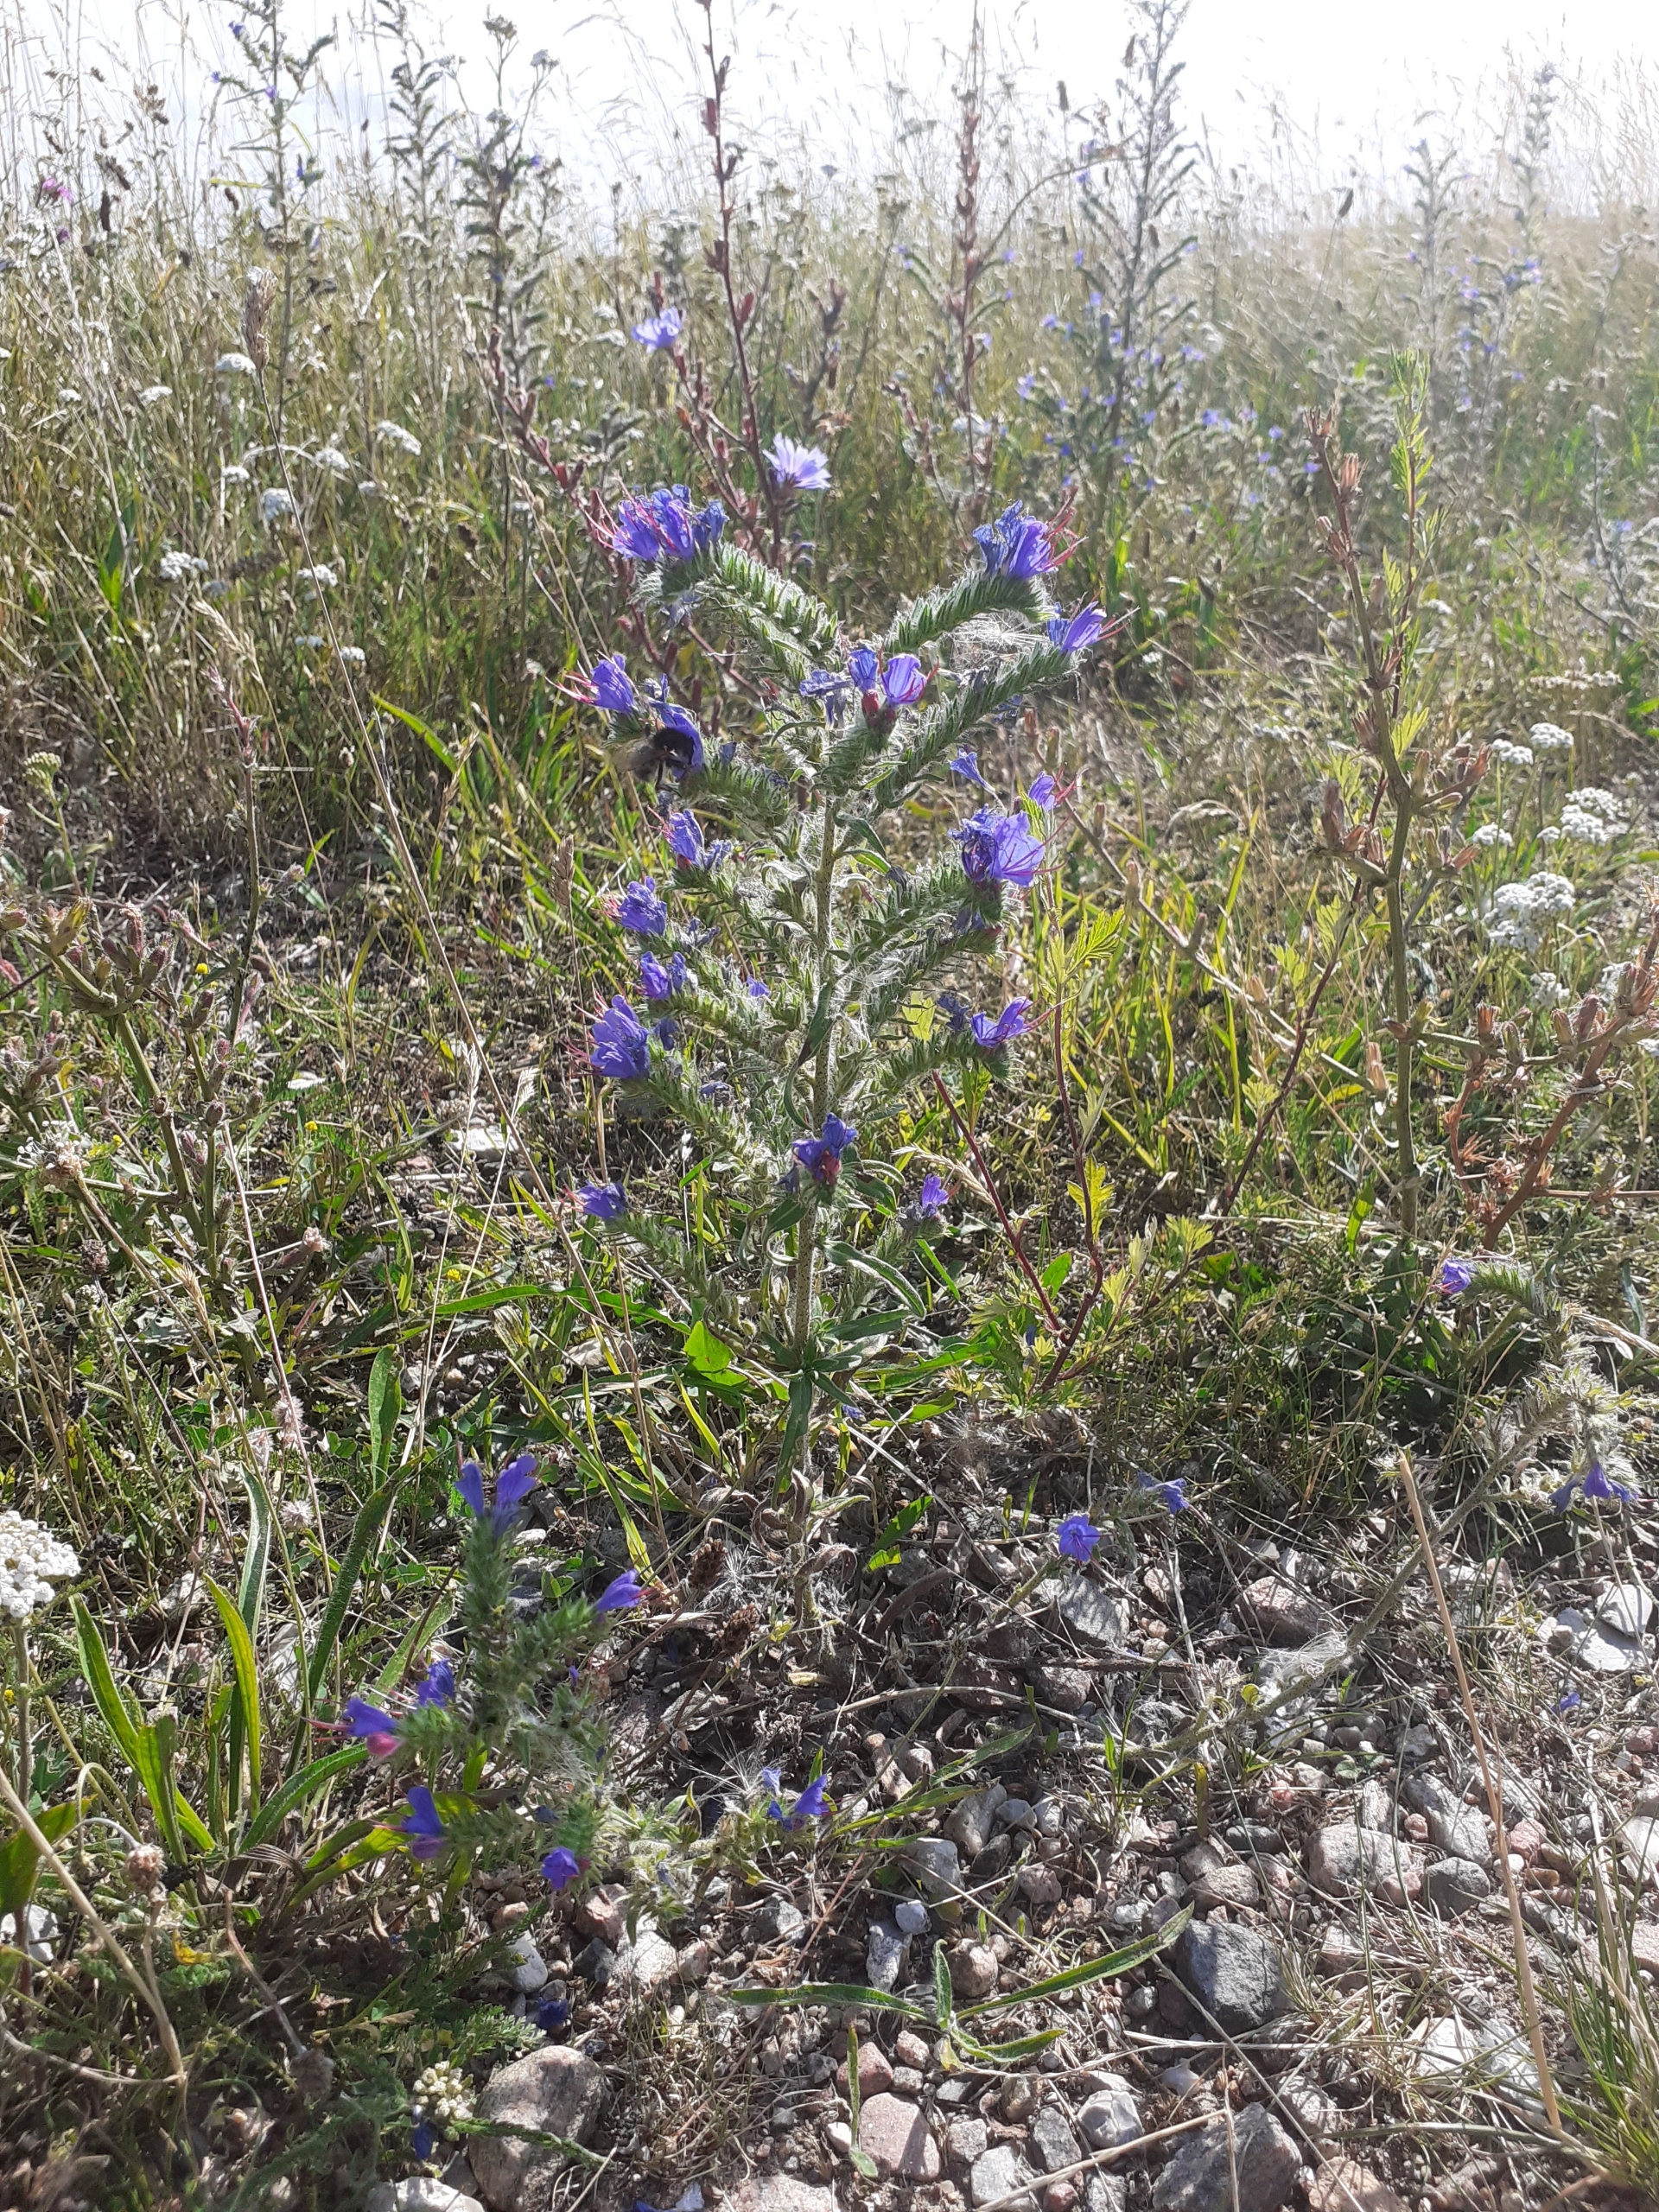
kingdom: Plantae
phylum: Tracheophyta
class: Magnoliopsida
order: Boraginales
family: Boraginaceae
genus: Echium
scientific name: Echium vulgare
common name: Slangehoved
